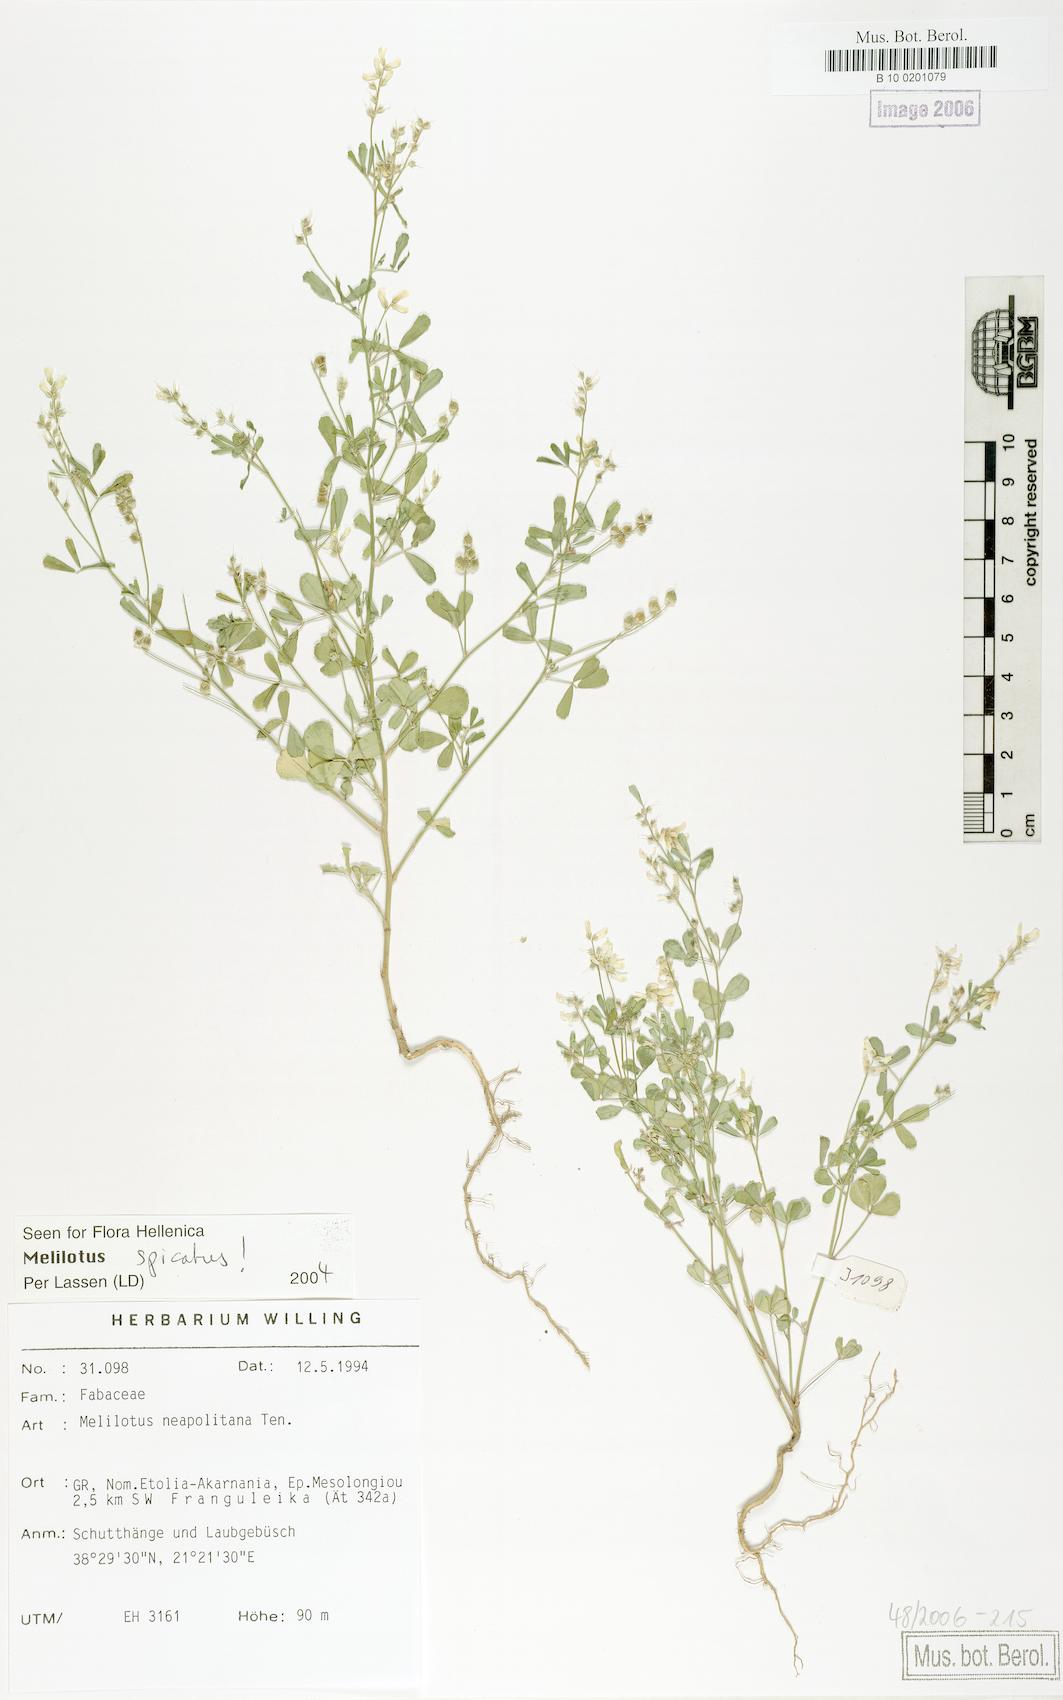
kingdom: Plantae
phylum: Tracheophyta
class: Magnoliopsida
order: Fabales
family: Fabaceae
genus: Melilotus
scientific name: Melilotus neapolitanus
